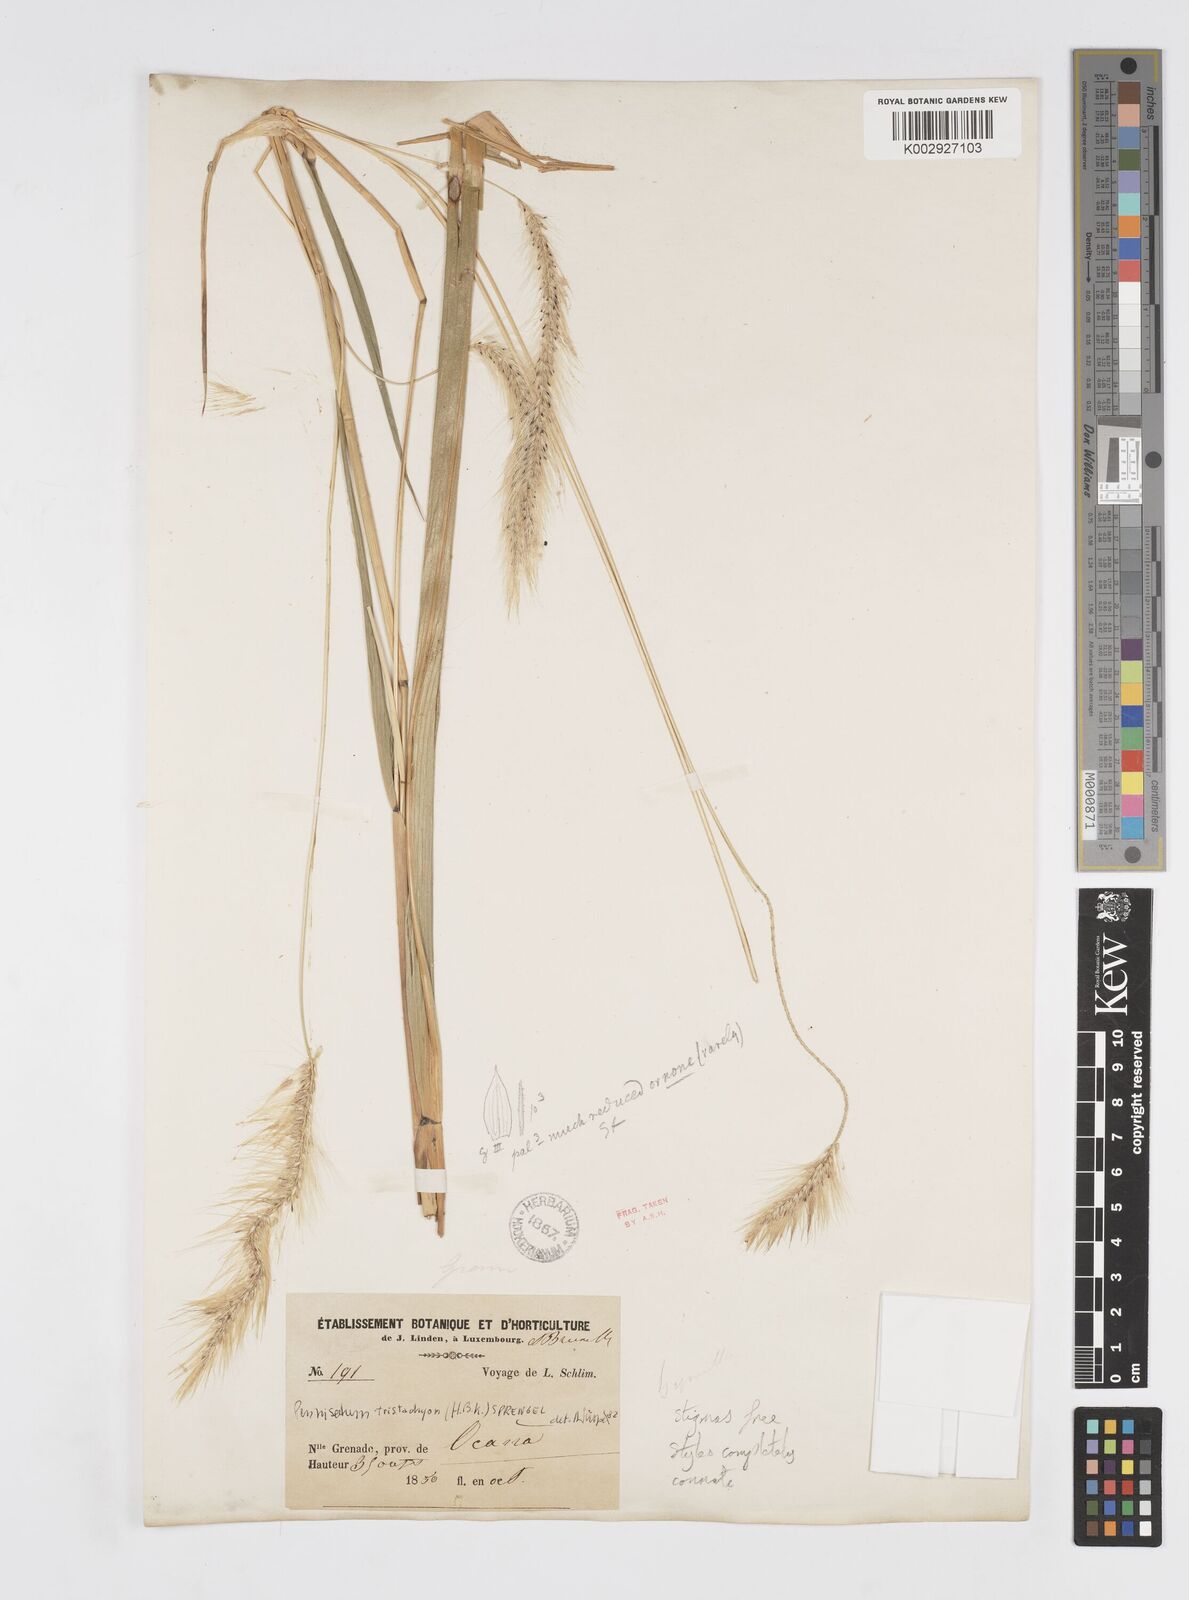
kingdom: Plantae
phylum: Tracheophyta
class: Liliopsida
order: Poales
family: Poaceae
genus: Cenchrus
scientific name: Cenchrus tristachyus
